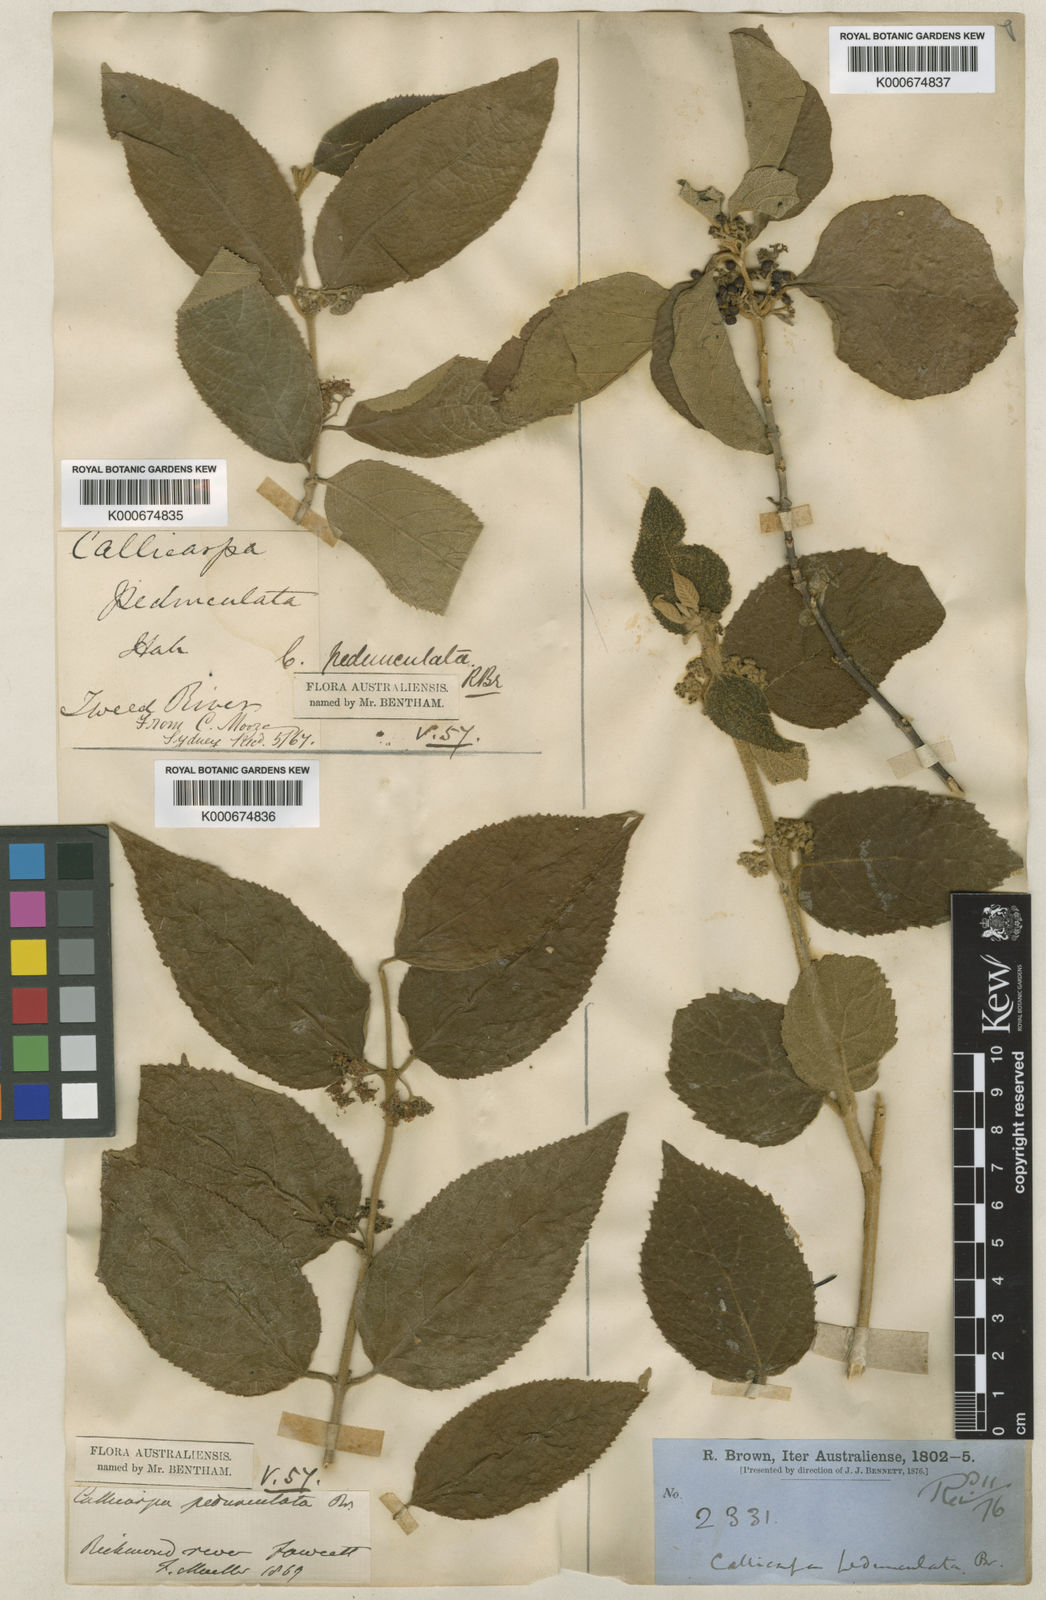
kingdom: Plantae
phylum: Tracheophyta
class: Magnoliopsida
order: Lamiales
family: Lamiaceae
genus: Callicarpa
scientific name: Callicarpa pedunculata
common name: Velvetleaf
